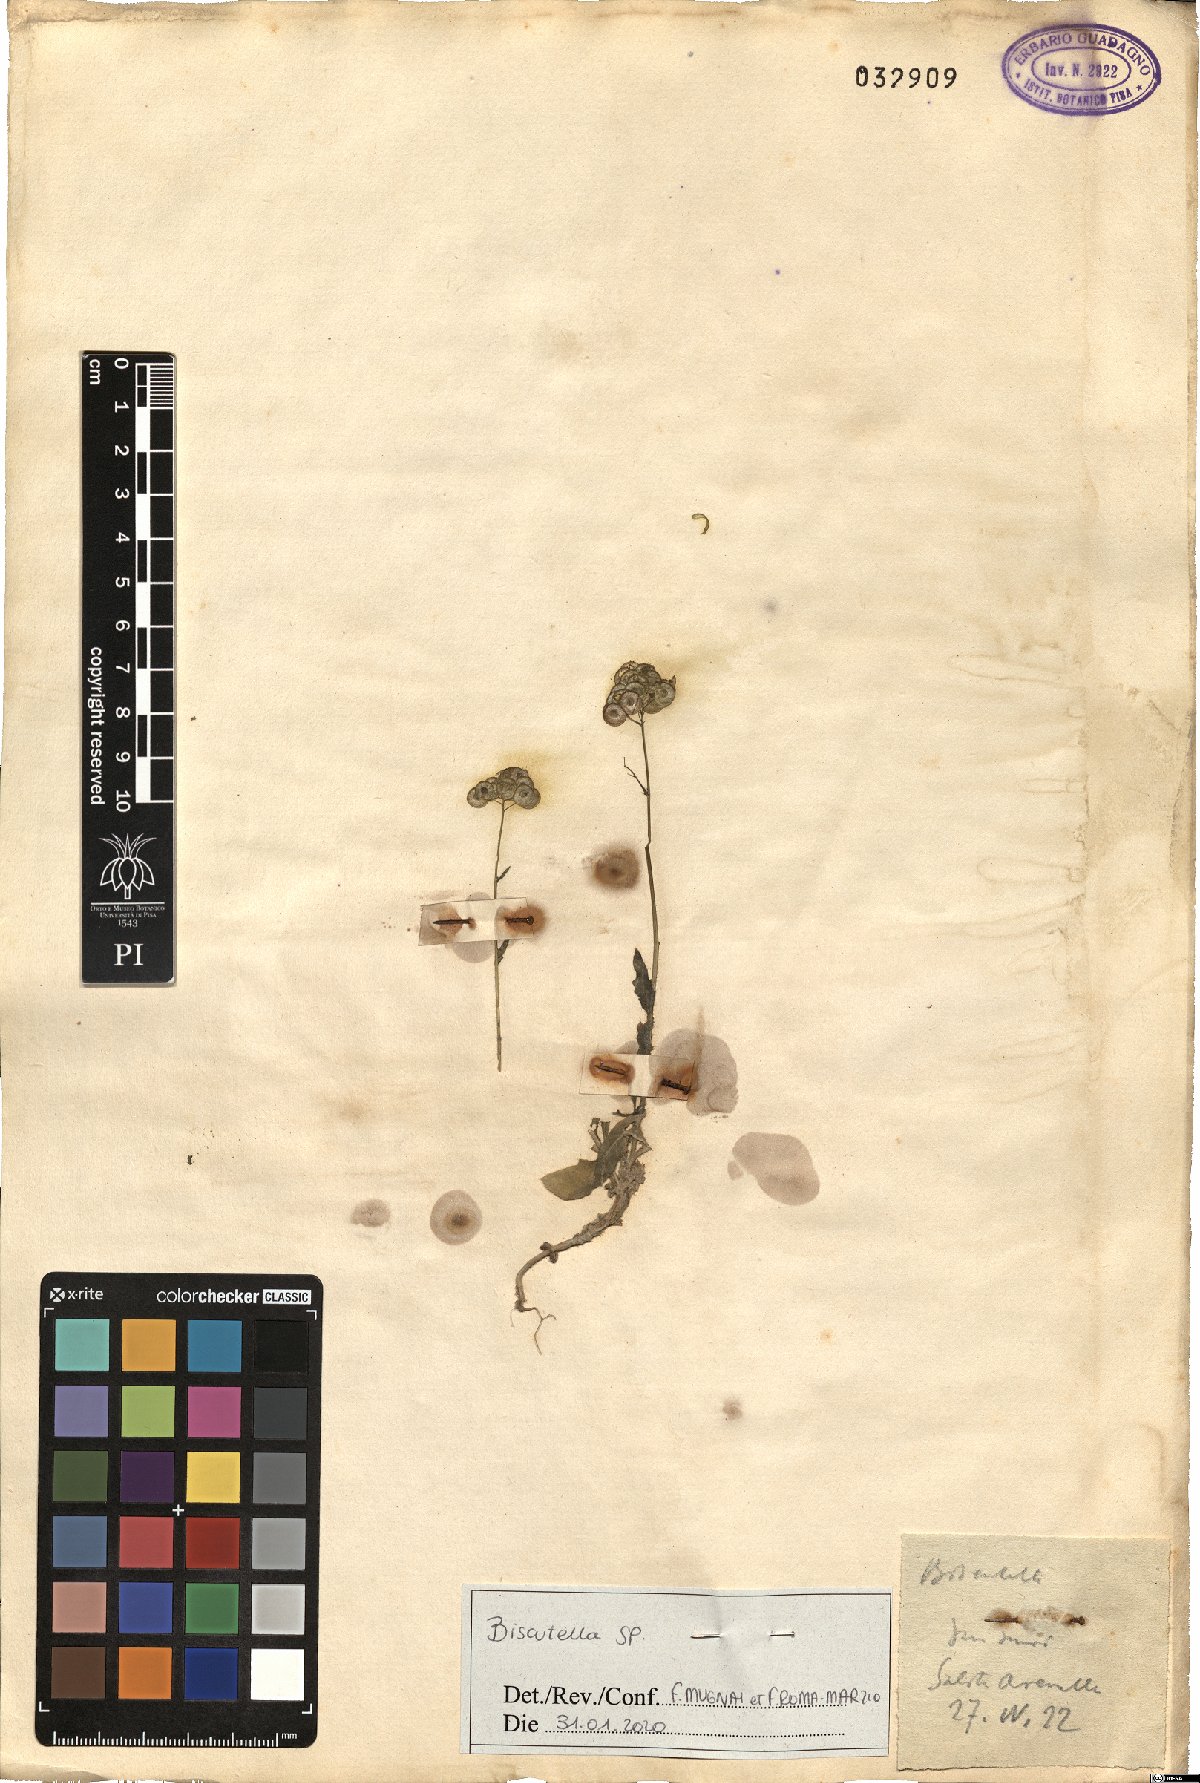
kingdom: Plantae
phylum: Tracheophyta
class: Magnoliopsida
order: Brassicales
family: Brassicaceae
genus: Biscutella
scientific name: Biscutella
